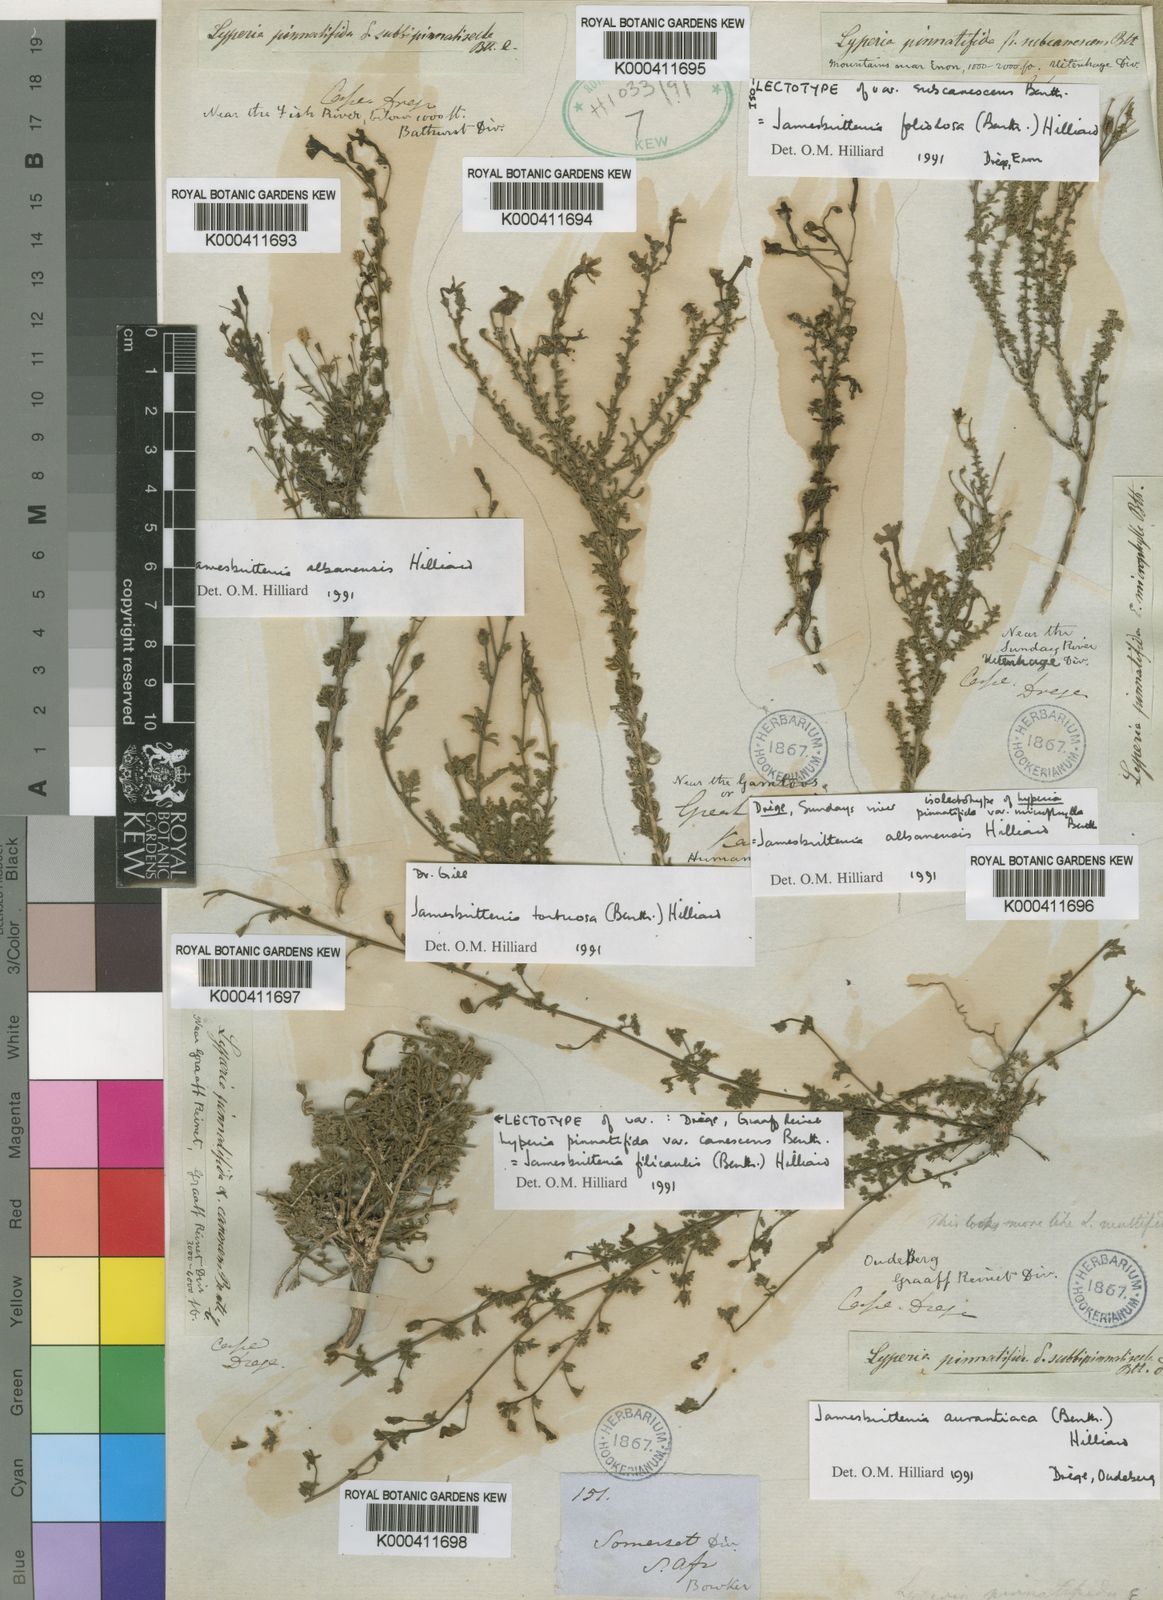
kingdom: Plantae
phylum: Tracheophyta
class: Magnoliopsida
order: Lamiales
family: Scrophulariaceae
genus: Jamesbrittenia
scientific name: Jamesbrittenia filicaulis
